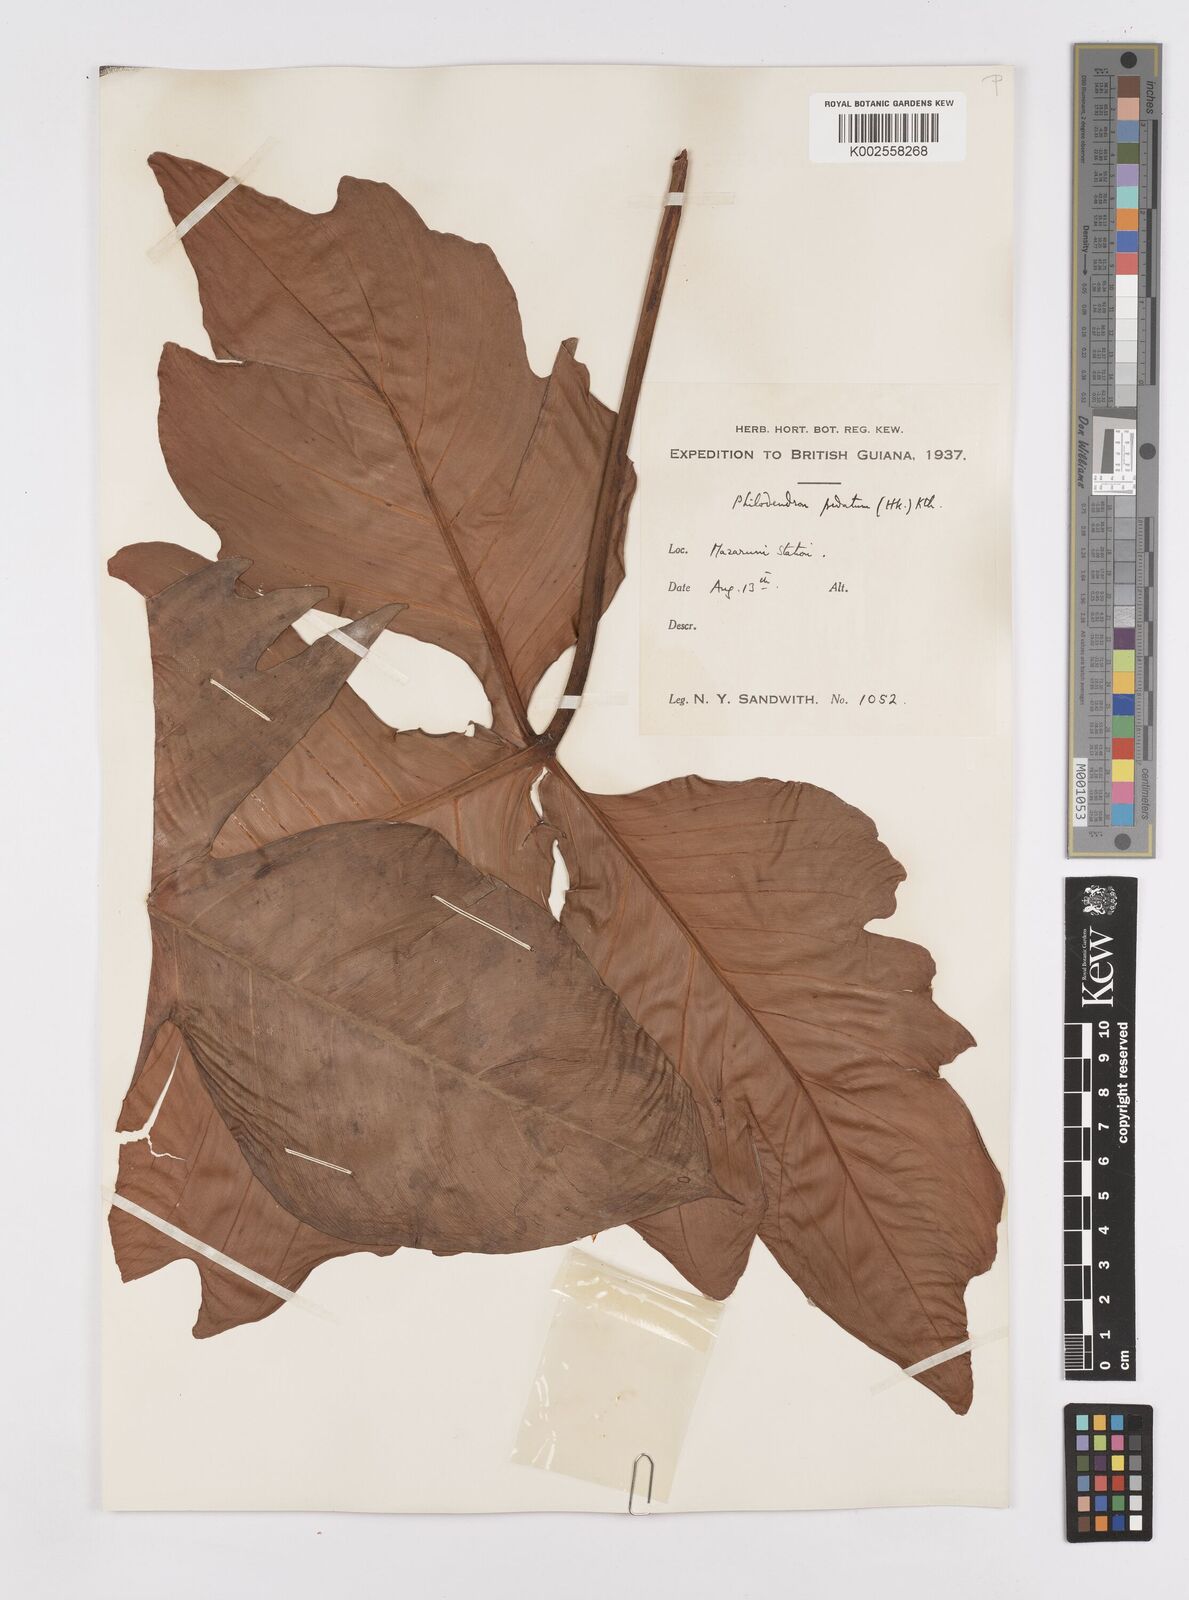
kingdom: Plantae
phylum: Tracheophyta
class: Liliopsida
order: Alismatales
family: Araceae
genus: Philodendron
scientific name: Philodendron pedatum
